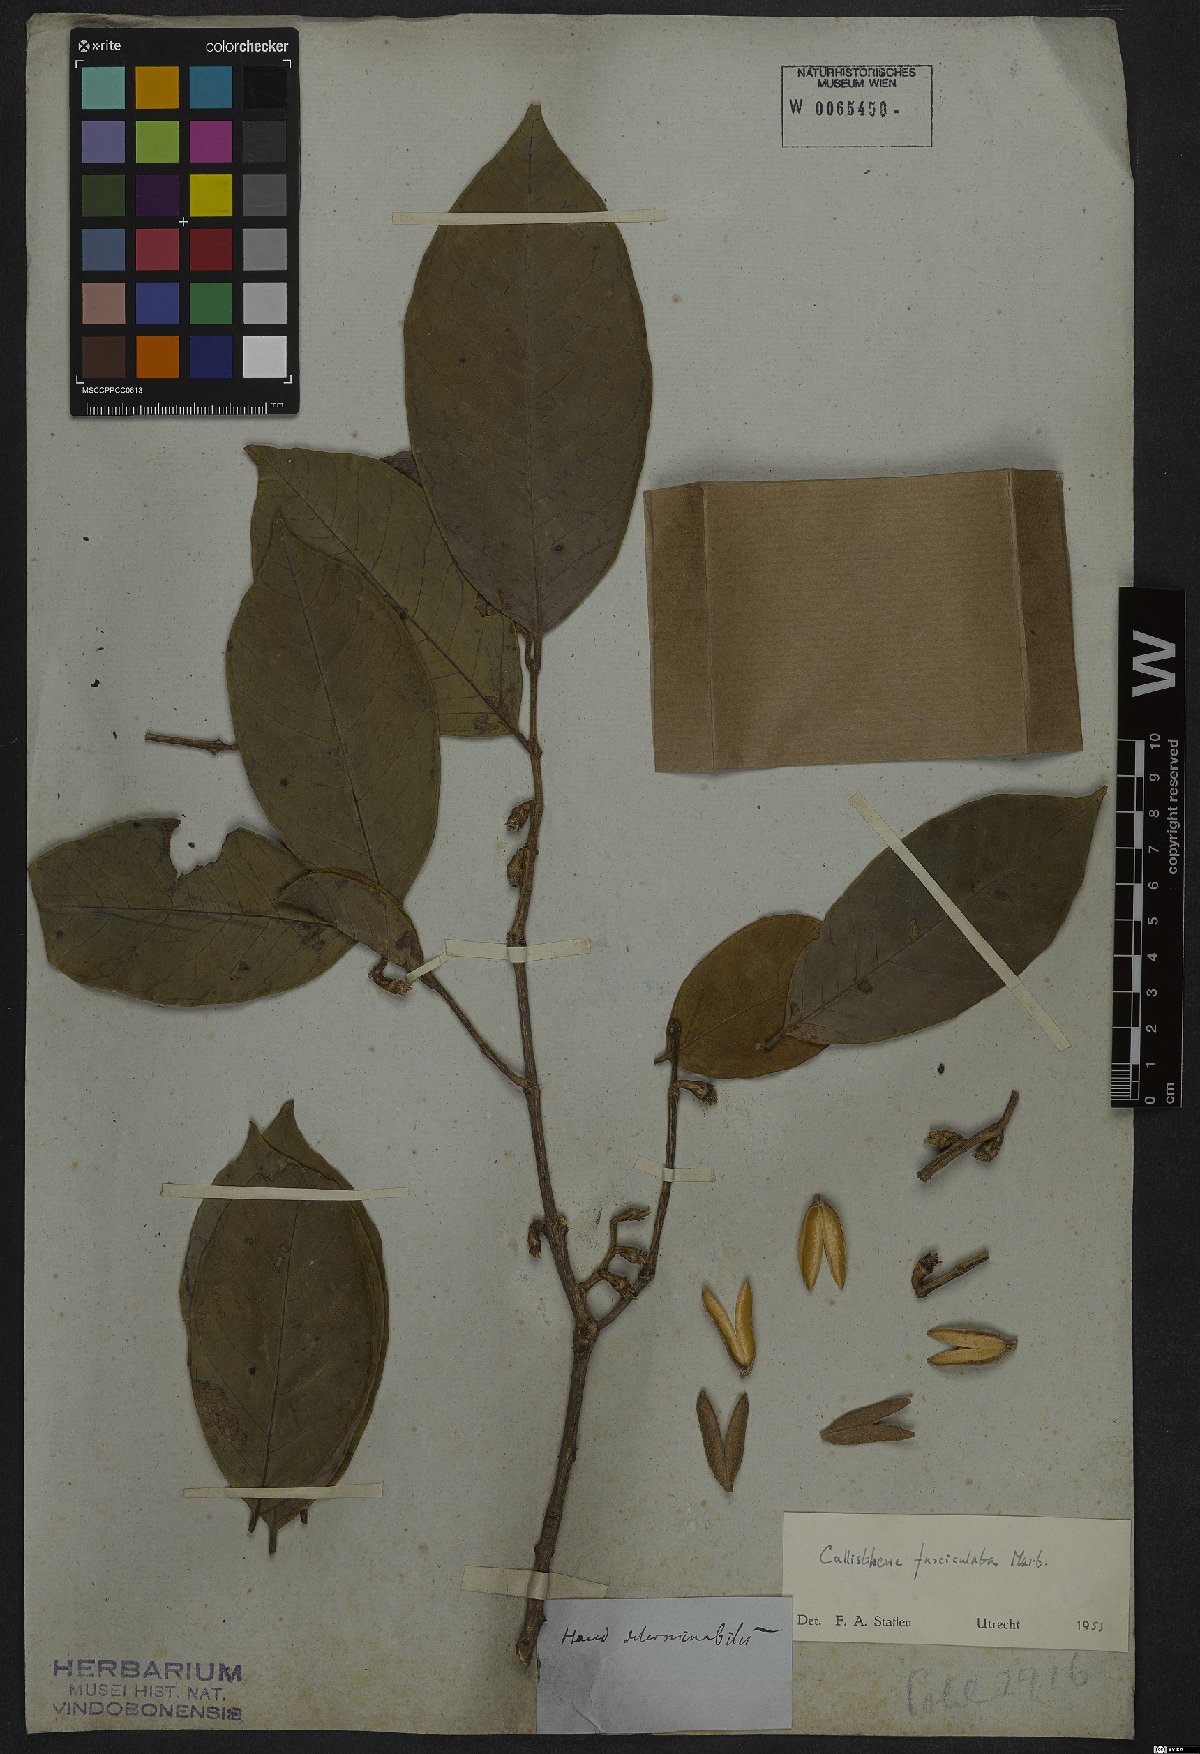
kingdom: Plantae
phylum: Tracheophyta
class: Magnoliopsida
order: Myrtales
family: Vochysiaceae
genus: Callisthene
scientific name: Callisthene fasciculata
